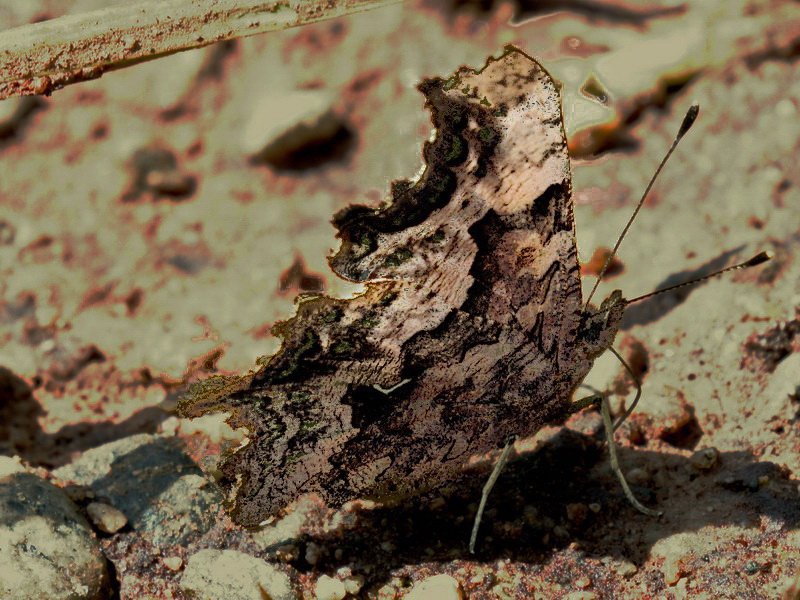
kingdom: Animalia
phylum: Arthropoda
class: Insecta
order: Lepidoptera
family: Nymphalidae
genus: Polygonia
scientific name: Polygonia faunus
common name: Green Comma
